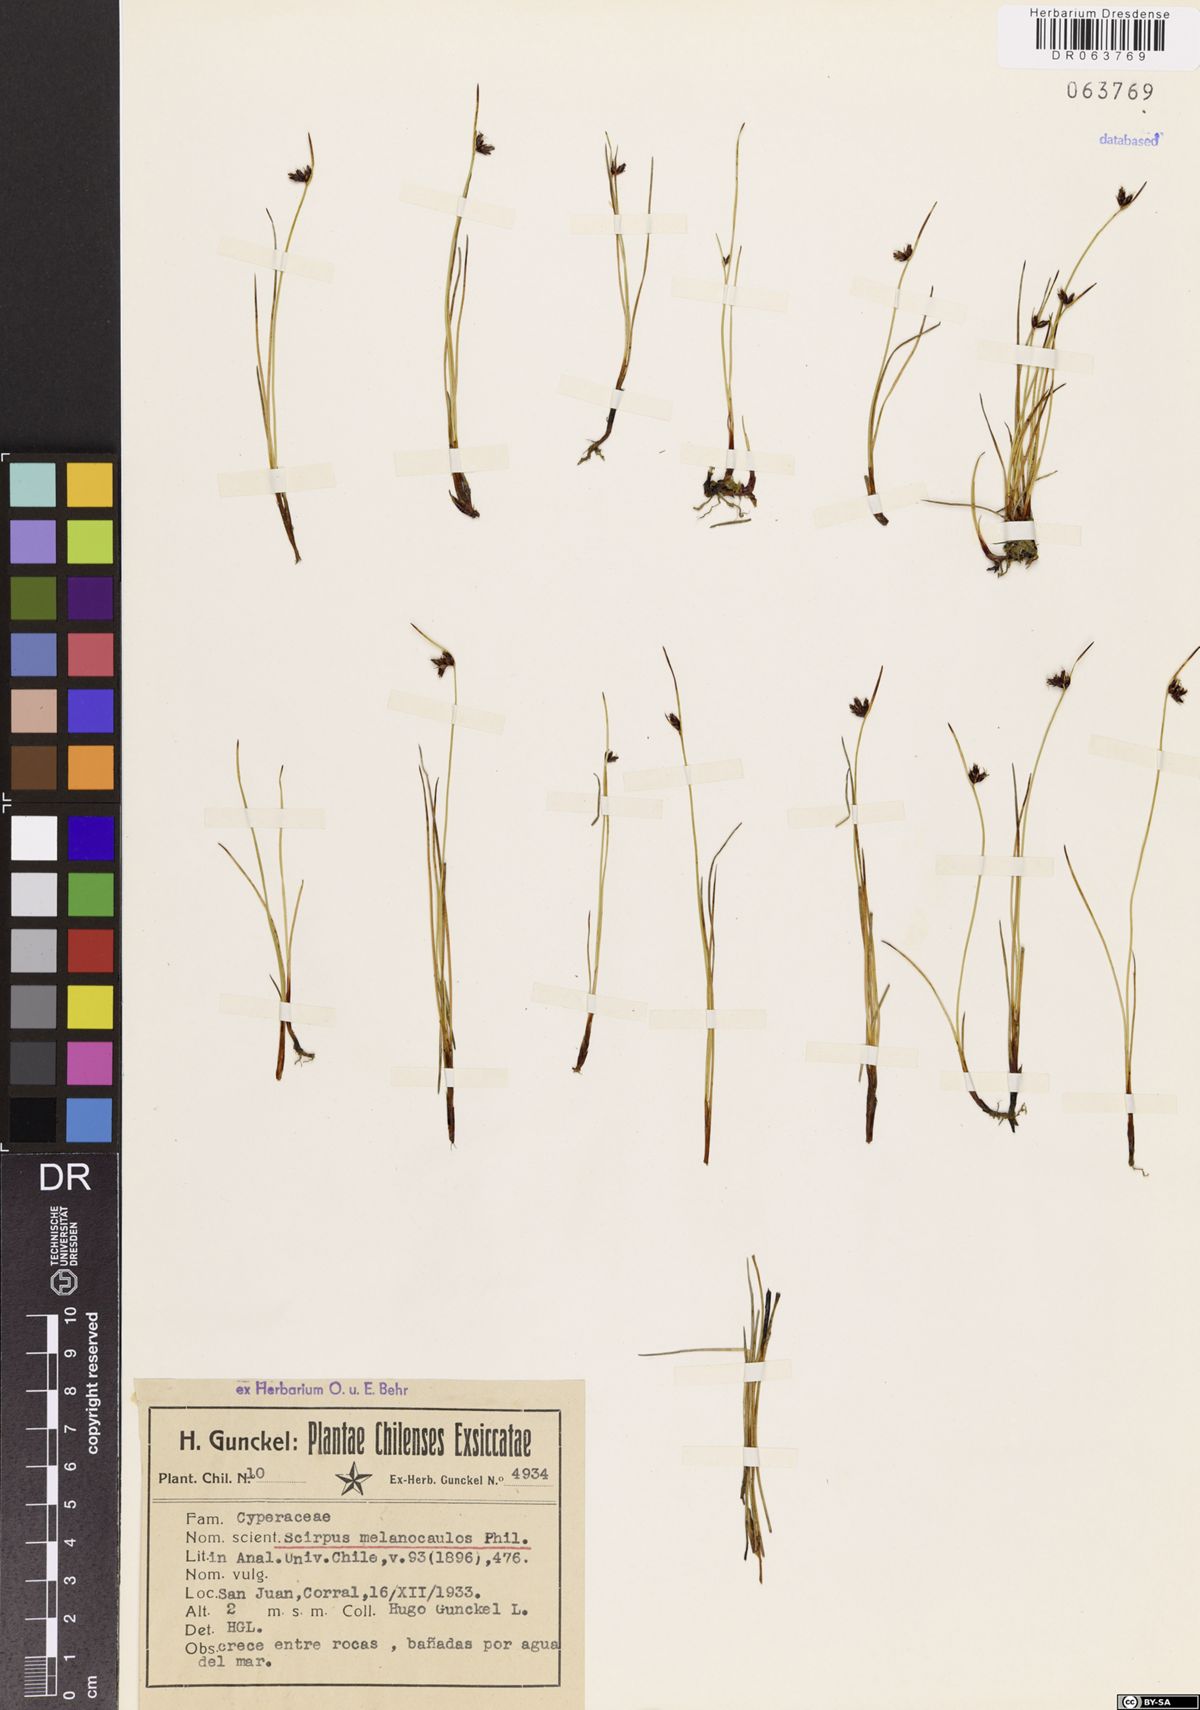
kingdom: Plantae
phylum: Tracheophyta
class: Liliopsida
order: Poales
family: Cyperaceae
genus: Scirpus
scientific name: Scirpus melanocaulos
